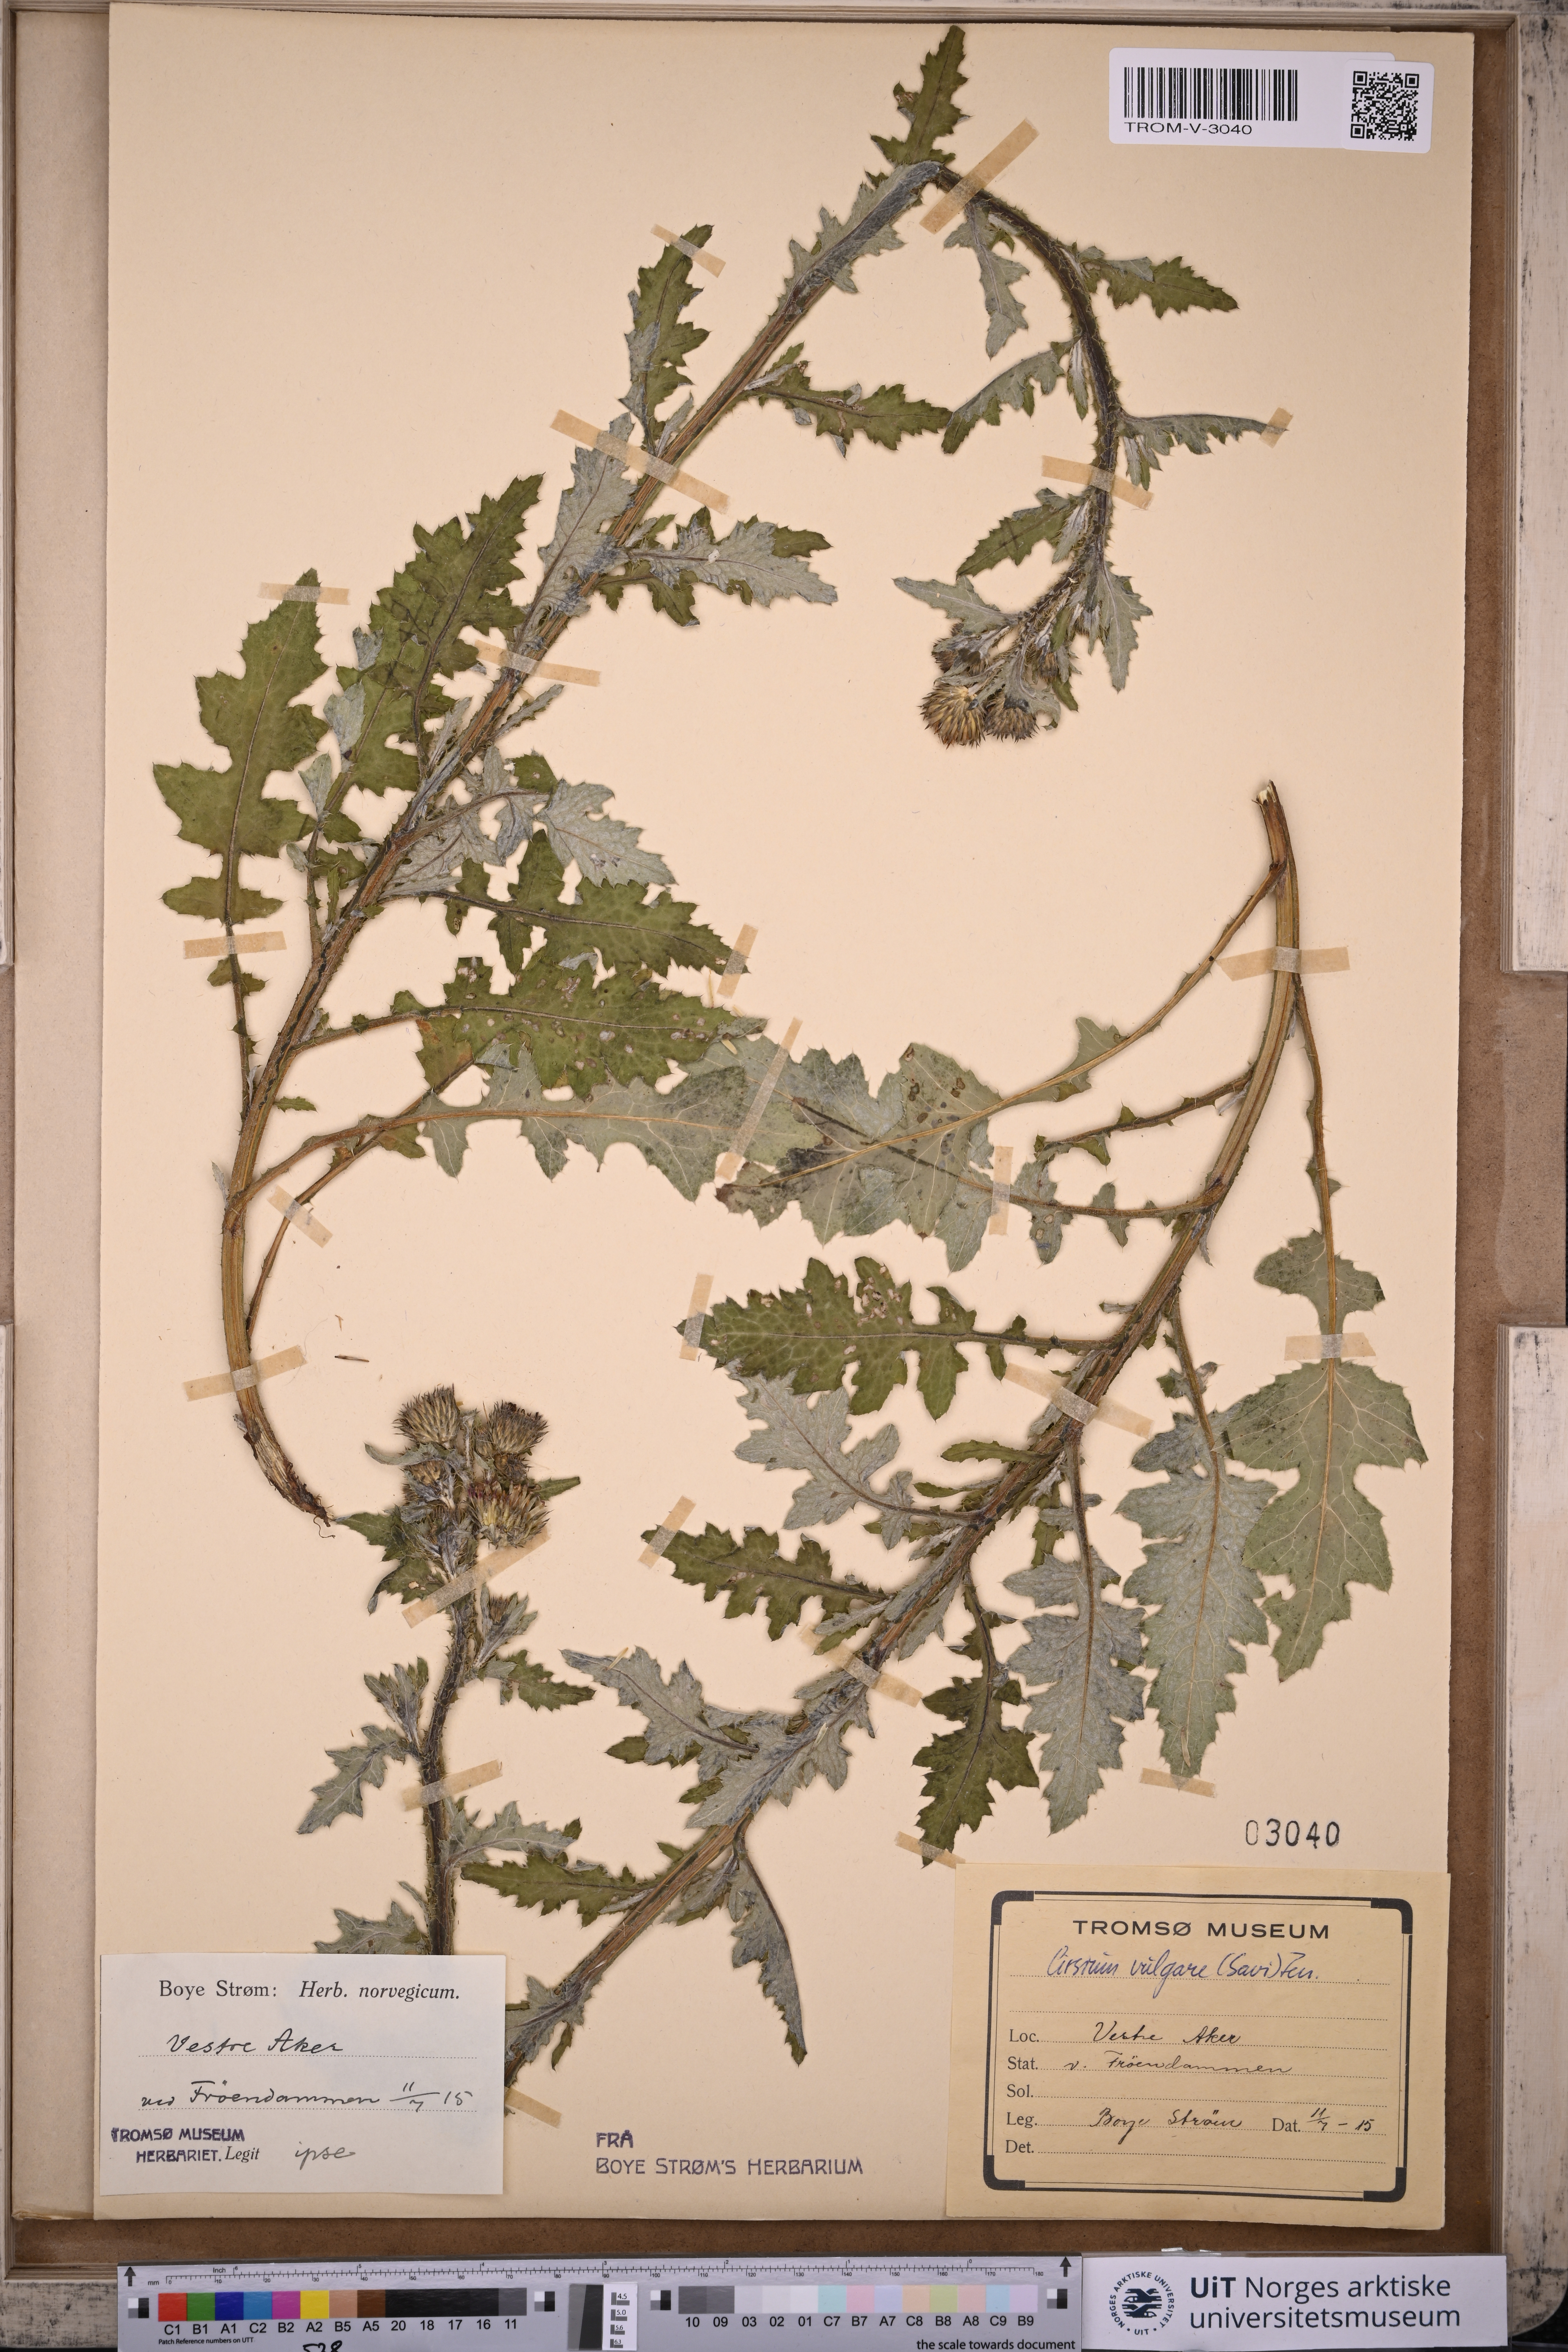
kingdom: Plantae
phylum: Tracheophyta
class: Magnoliopsida
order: Asterales
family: Asteraceae
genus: Cirsium
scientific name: Cirsium vulgare
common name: Bull thistle
